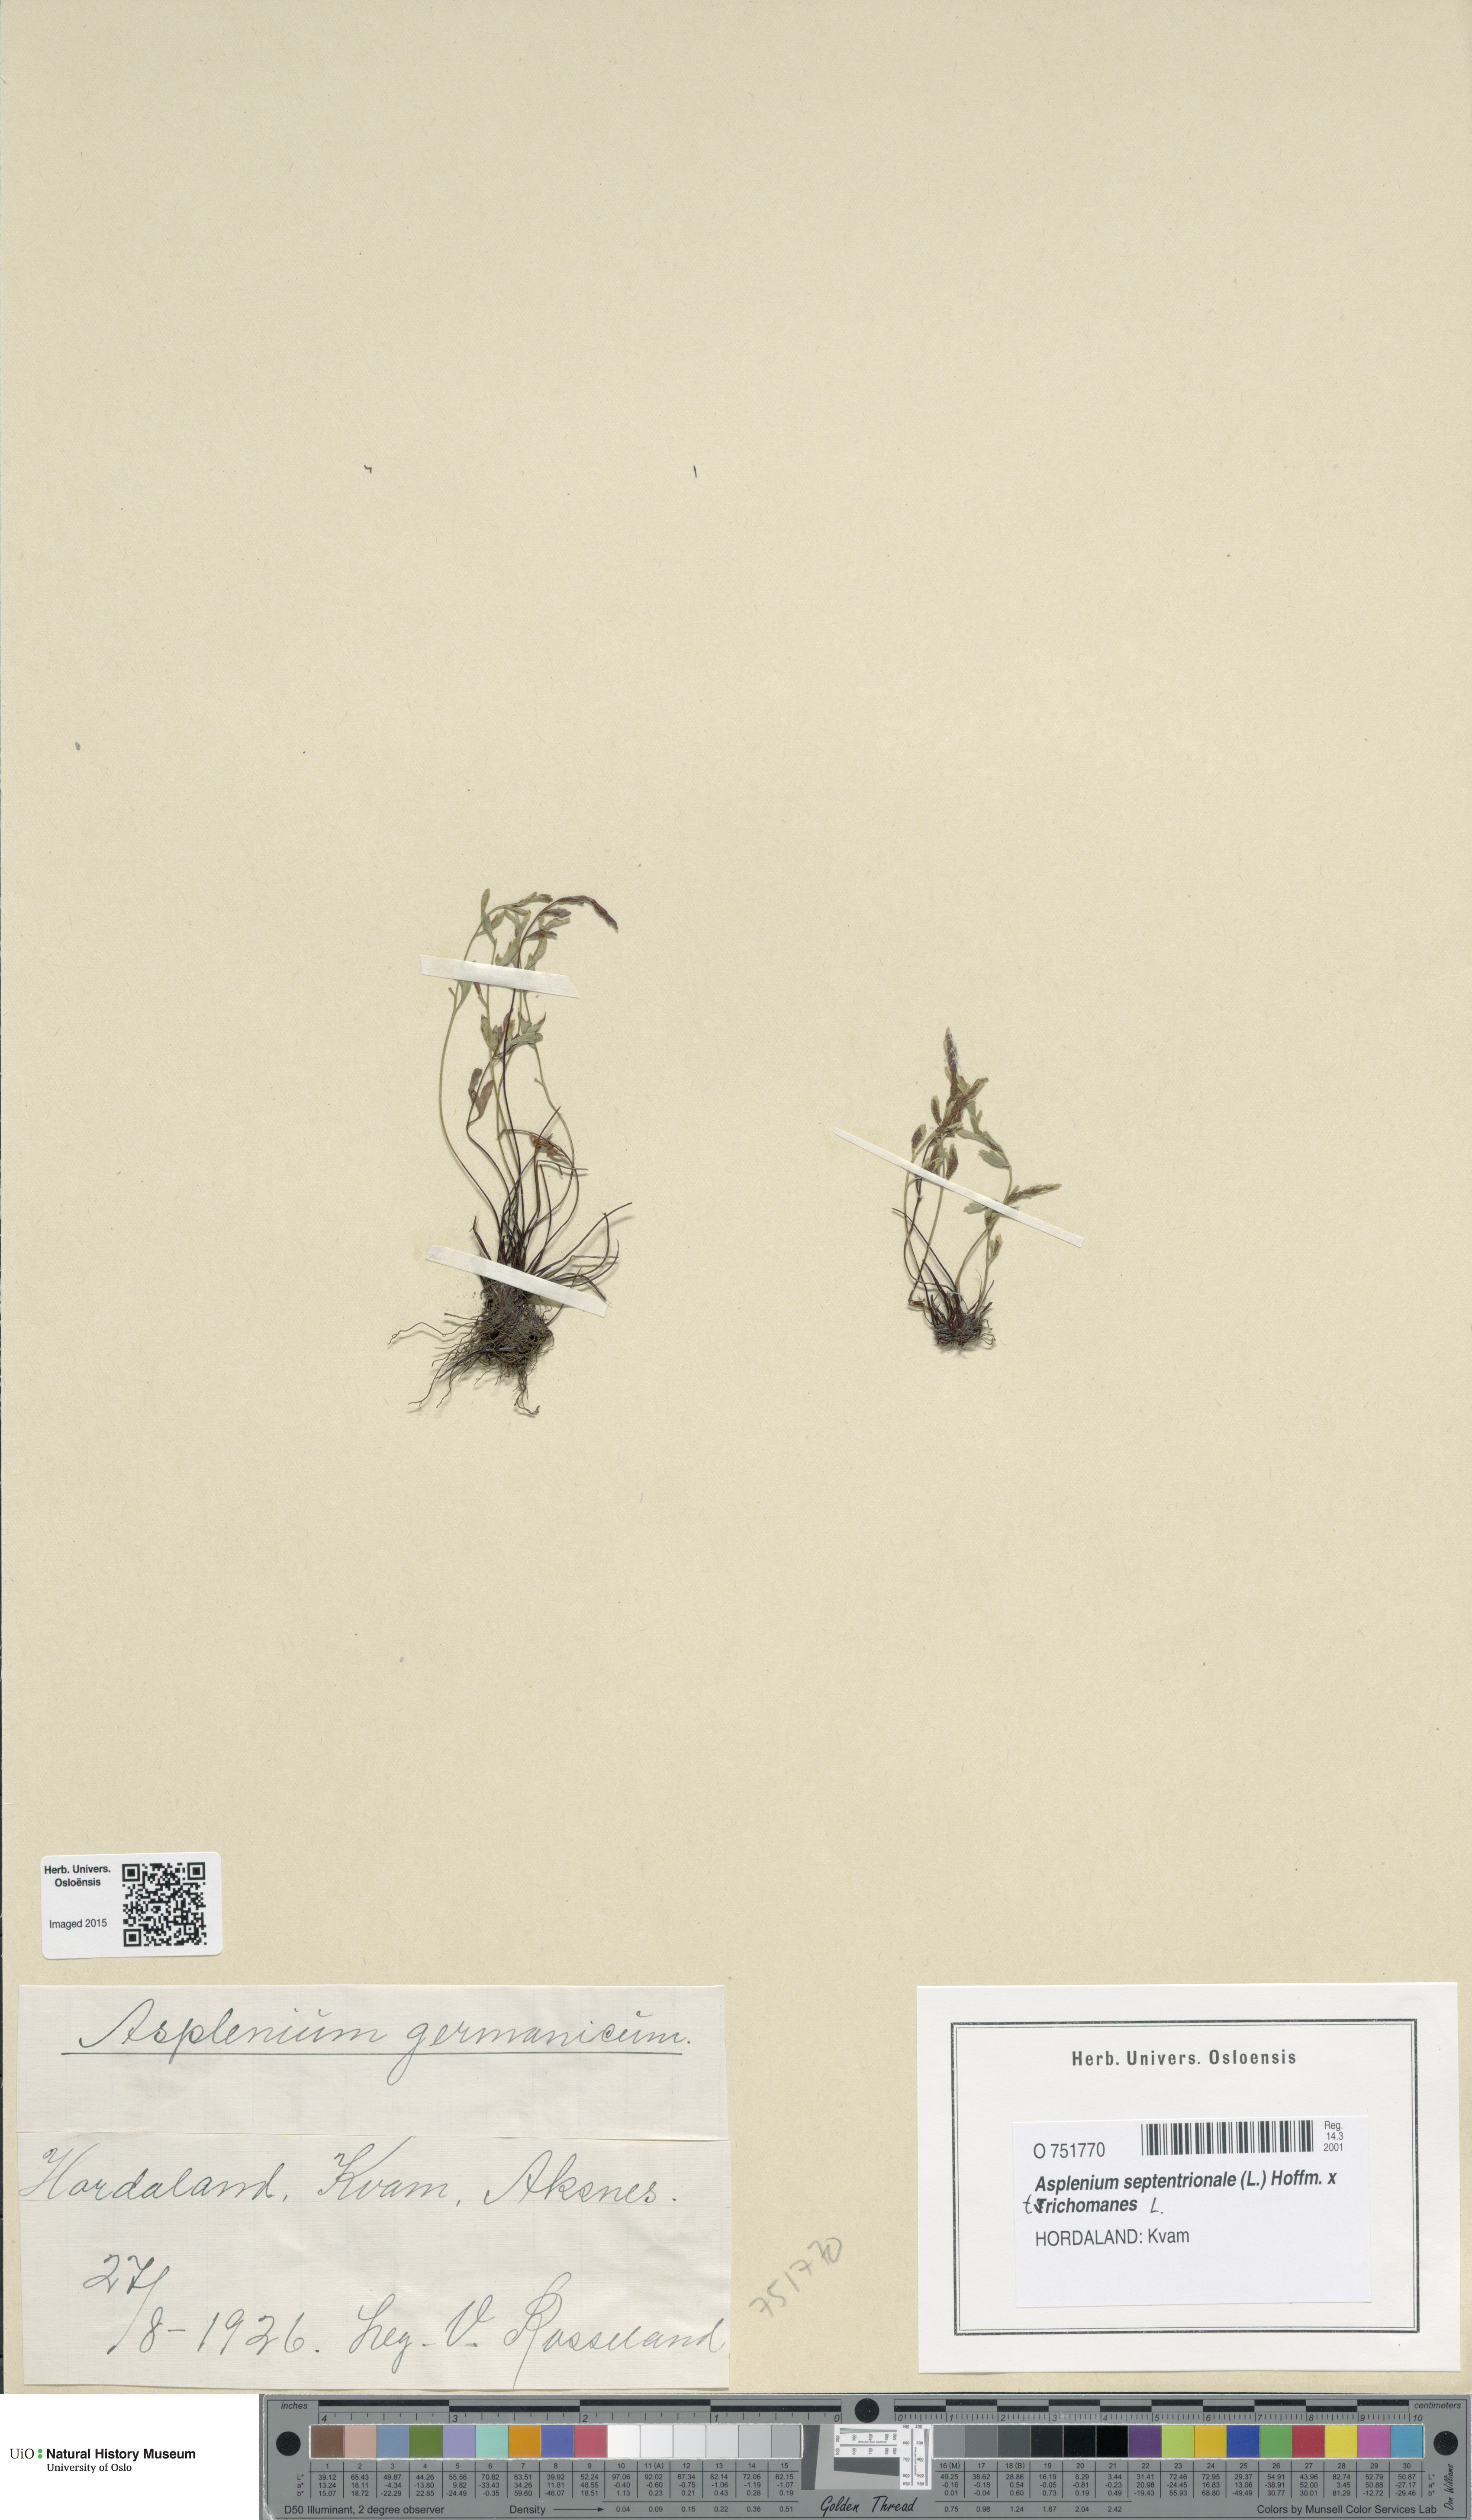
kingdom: Plantae
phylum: Tracheophyta
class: Polypodiopsida
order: Polypodiales
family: Aspleniaceae
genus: Asplenium
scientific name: Asplenium
